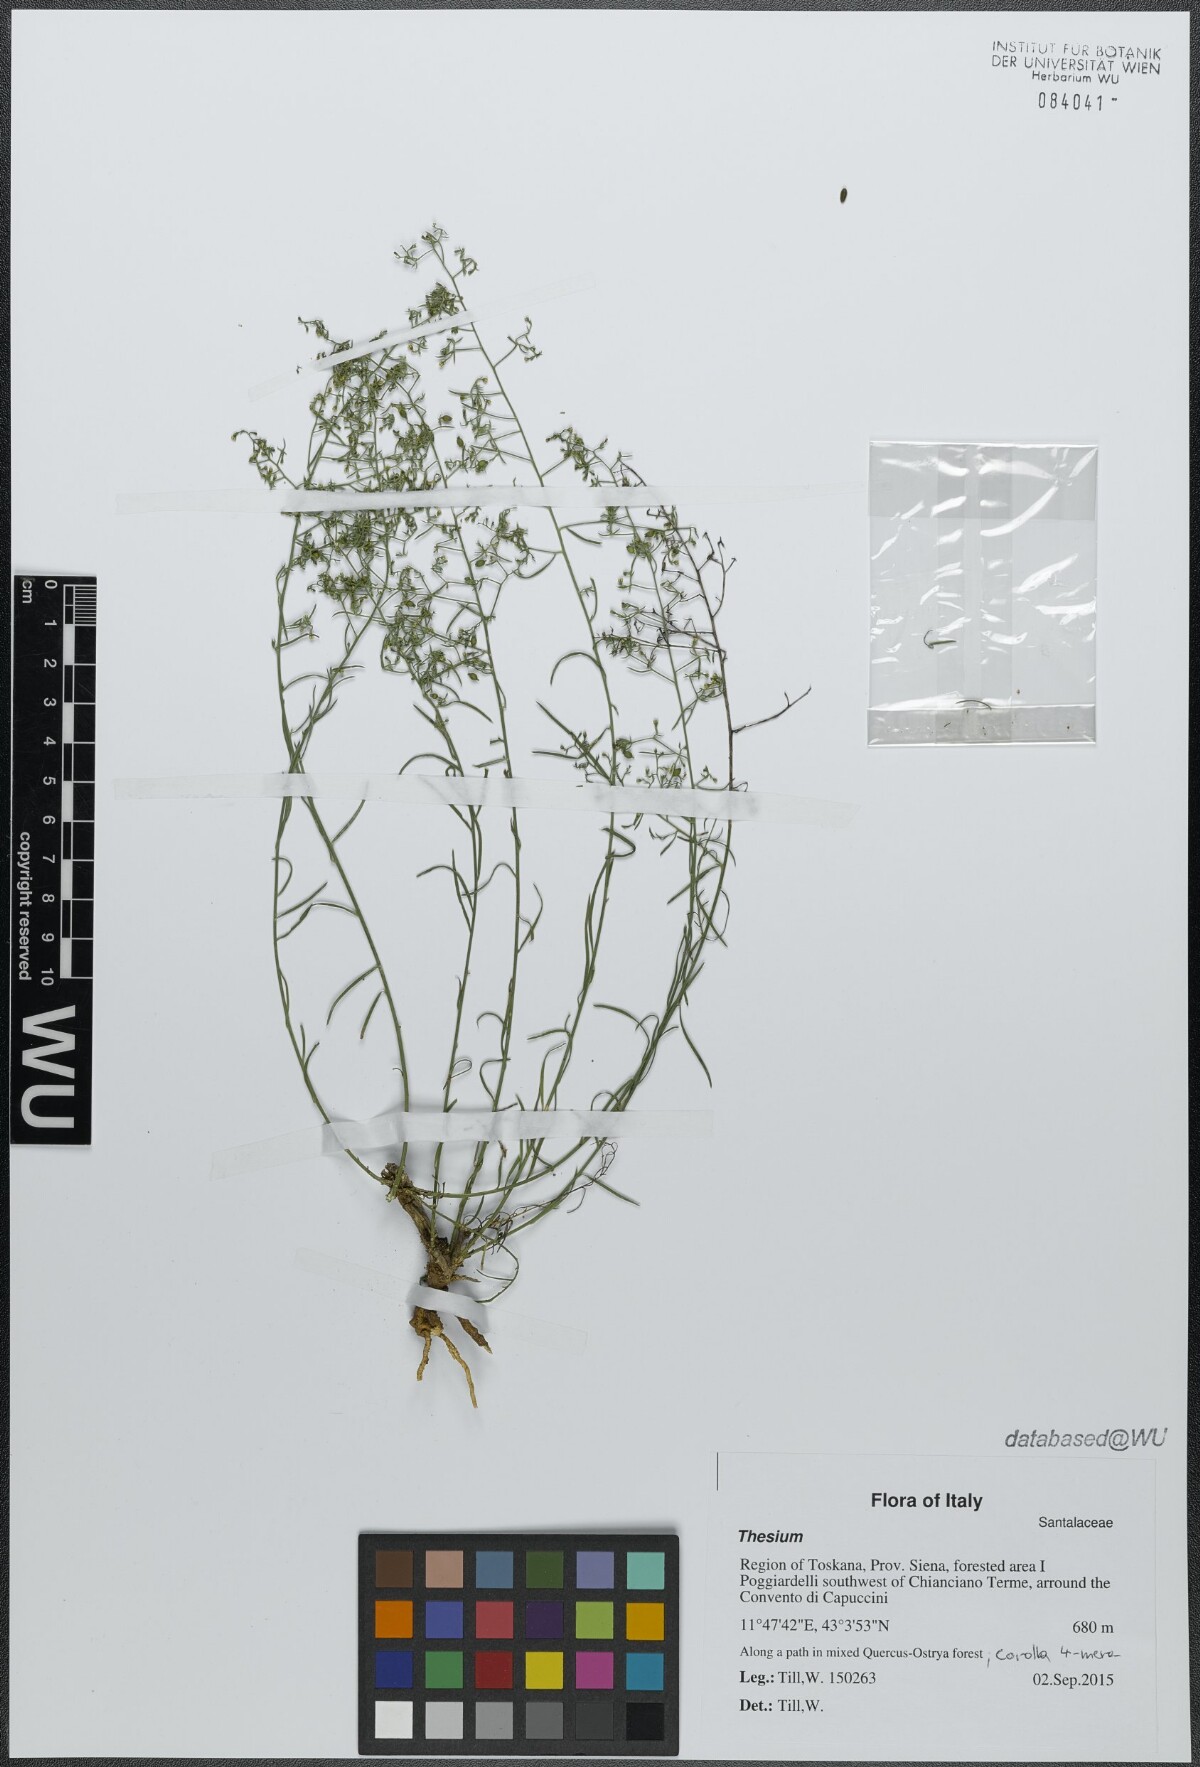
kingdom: Plantae
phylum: Tracheophyta
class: Magnoliopsida
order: Santalales
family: Thesiaceae
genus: Thesium
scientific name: Thesium
